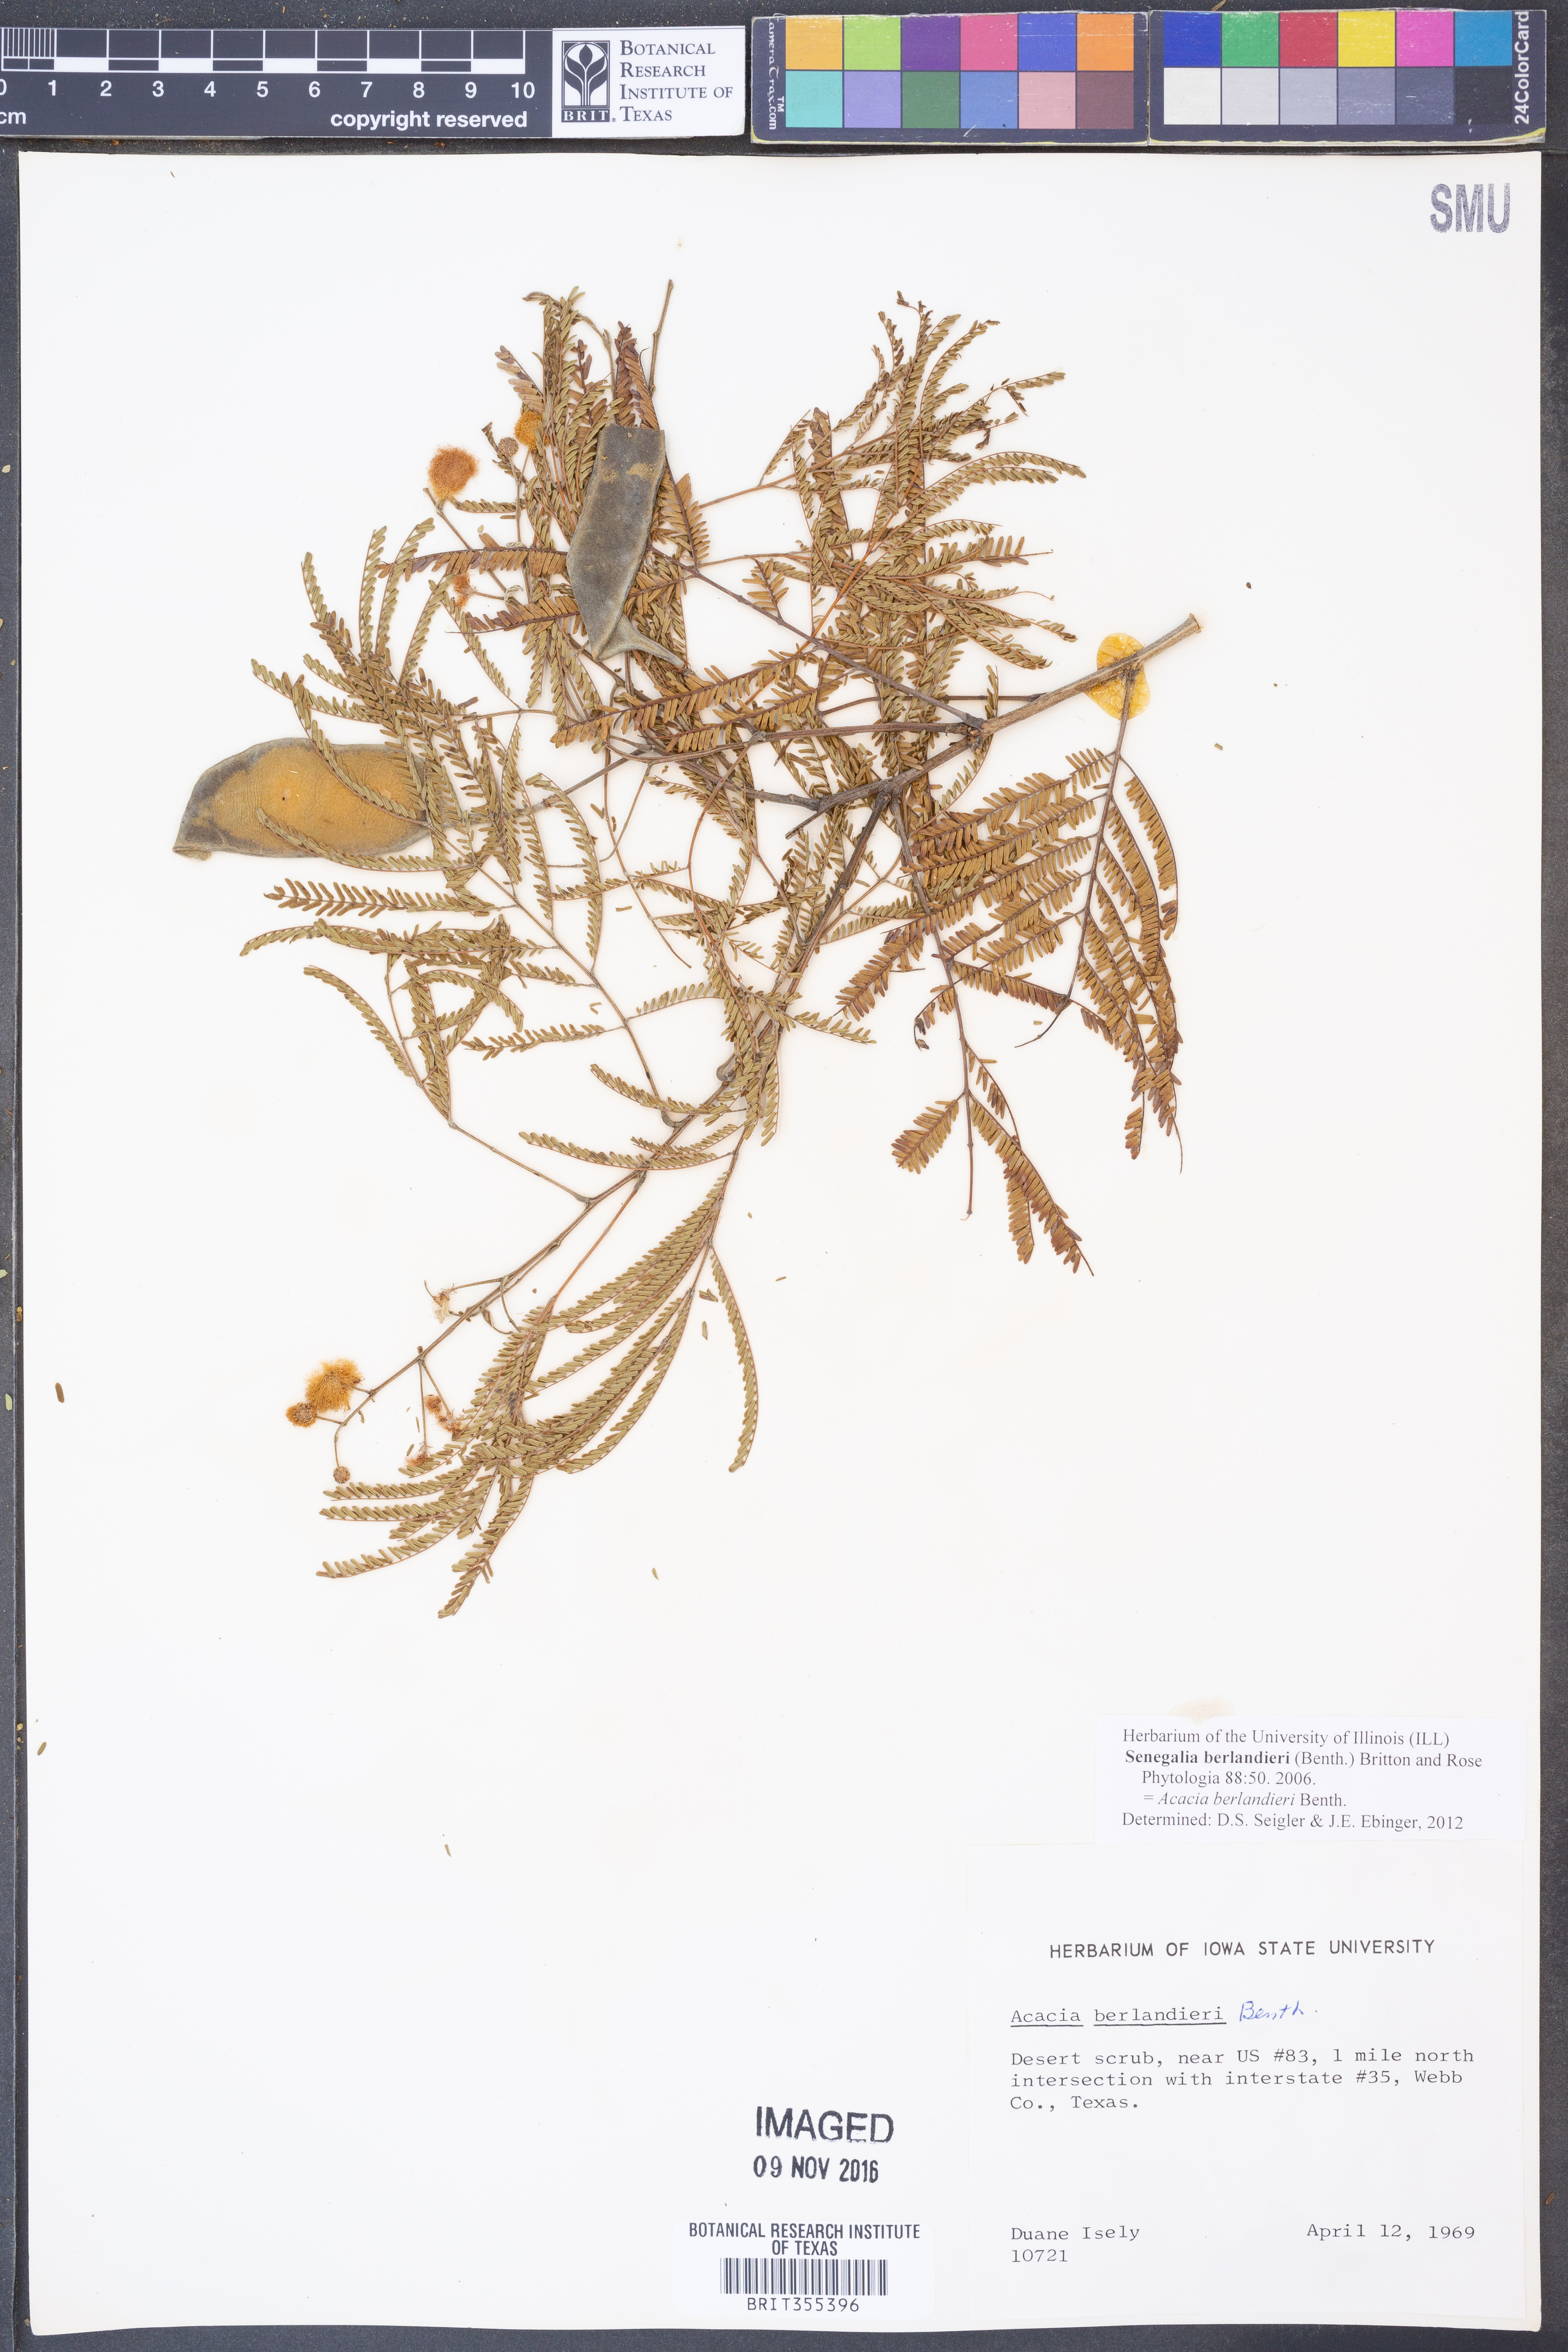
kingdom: Plantae
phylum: Tracheophyta
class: Magnoliopsida
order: Fabales
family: Fabaceae
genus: Senegalia
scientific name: Senegalia berlandieri
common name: Berlandier acacia
